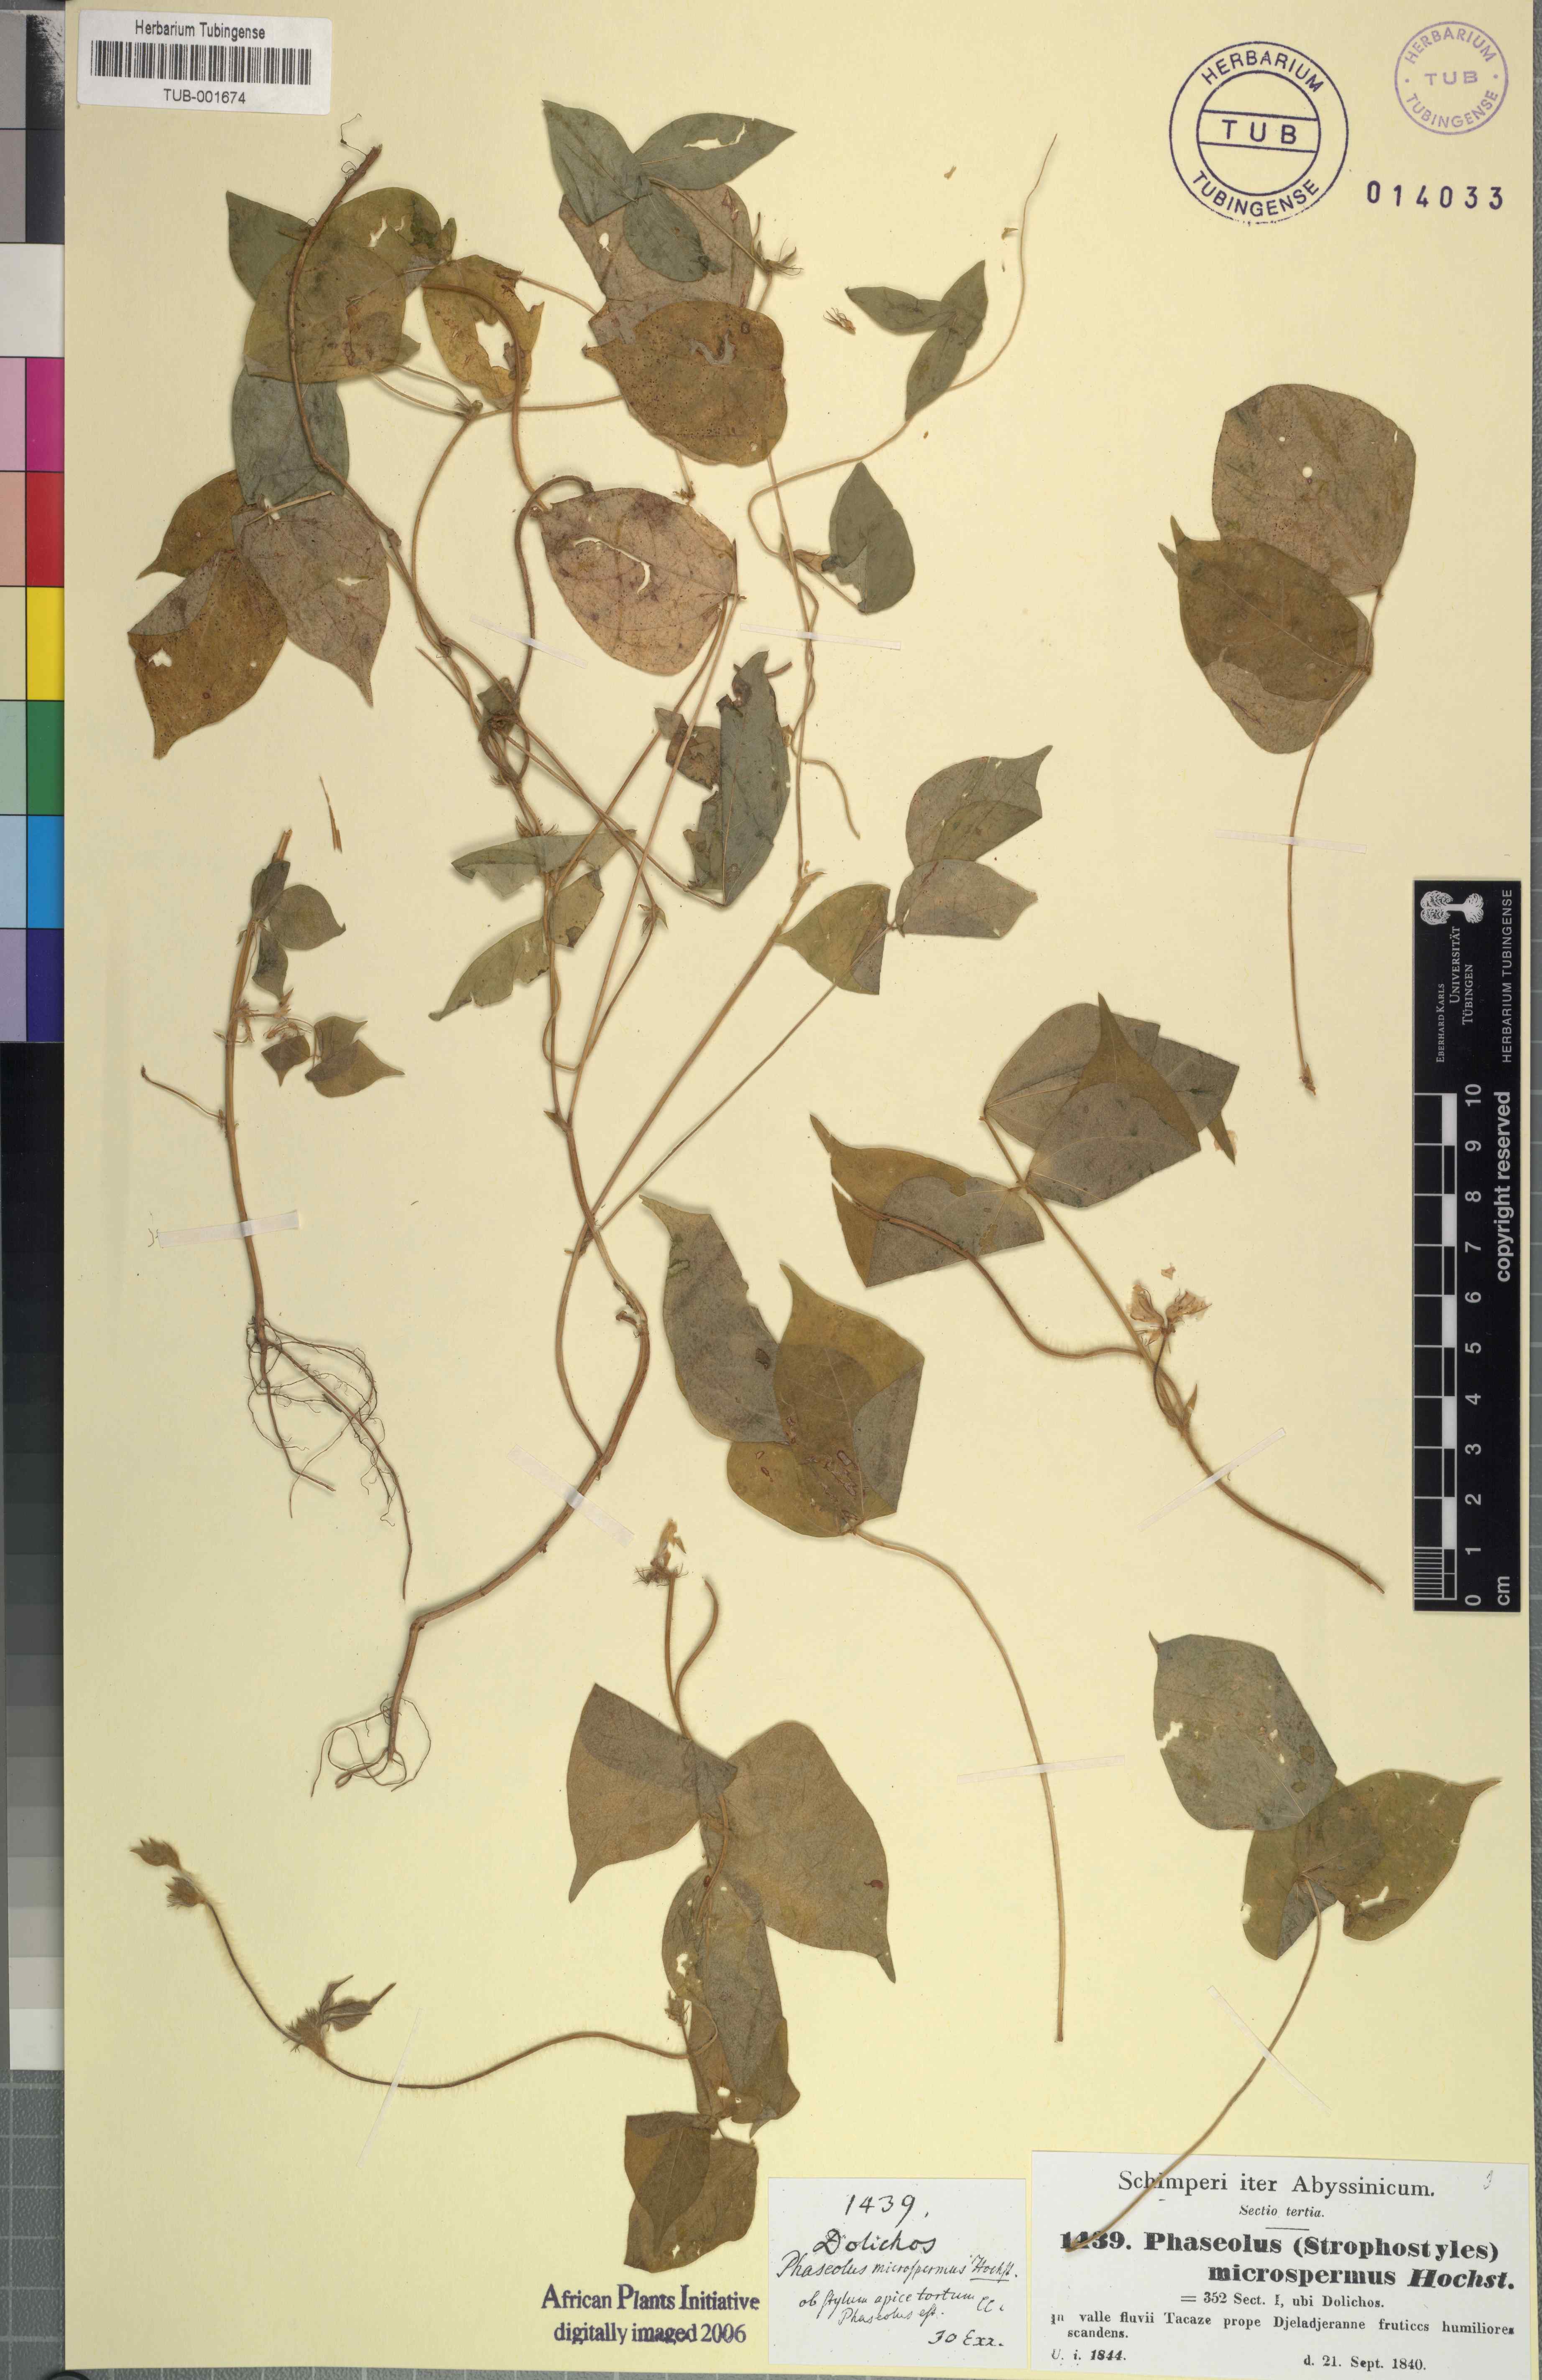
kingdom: Plantae
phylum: Tracheophyta
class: Magnoliopsida
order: Fabales
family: Fabaceae
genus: Vigna
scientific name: Vigna membranacea
